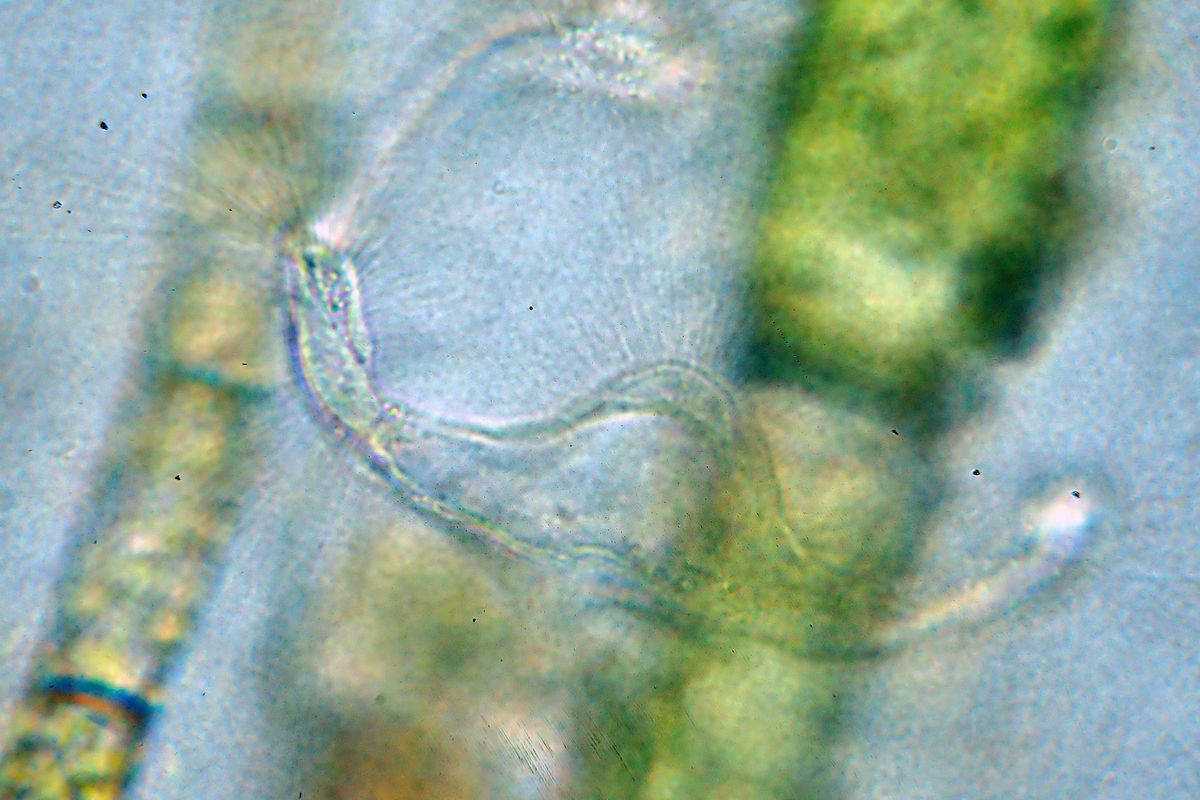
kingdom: Animalia
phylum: Rotifera
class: Eurotatoria
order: Collothecacea
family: Collothecidae
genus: Collotheca
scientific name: Collotheca ornata
